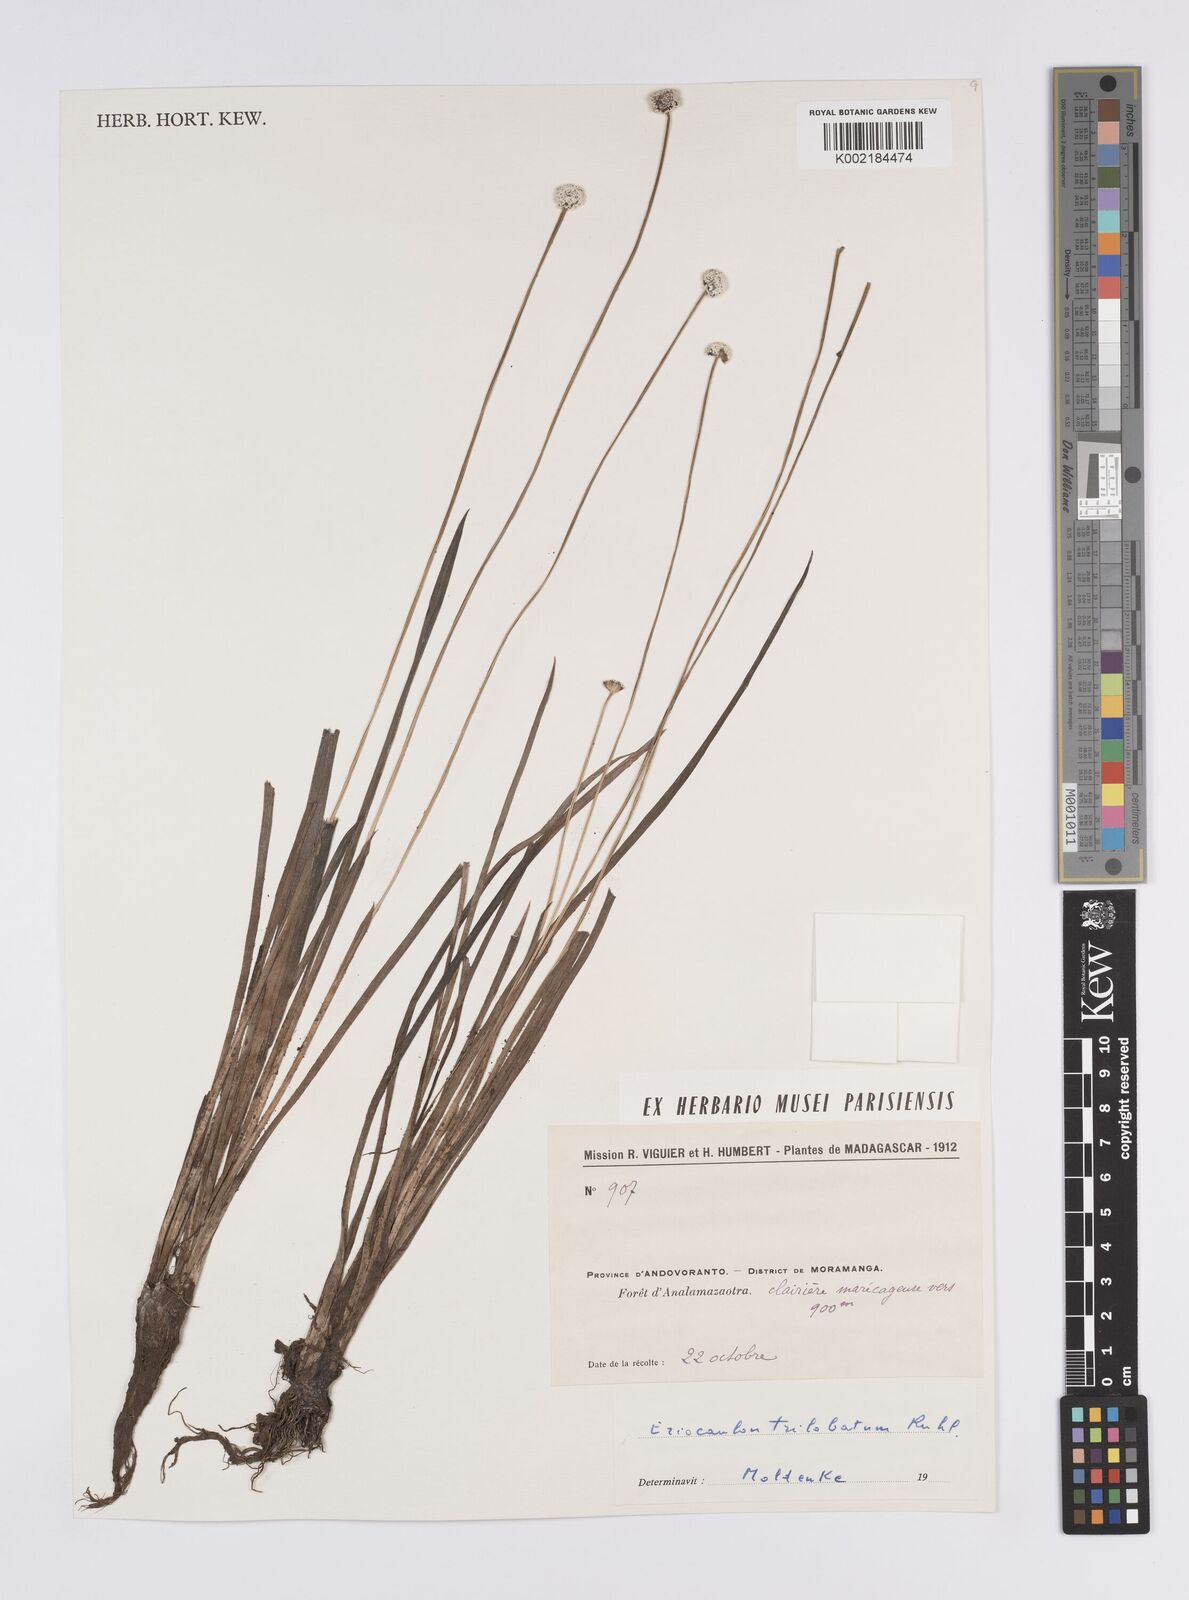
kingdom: Plantae
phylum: Tracheophyta
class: Liliopsida
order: Poales
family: Eriocaulaceae
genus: Eriocaulon
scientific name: Eriocaulon trilobatum
